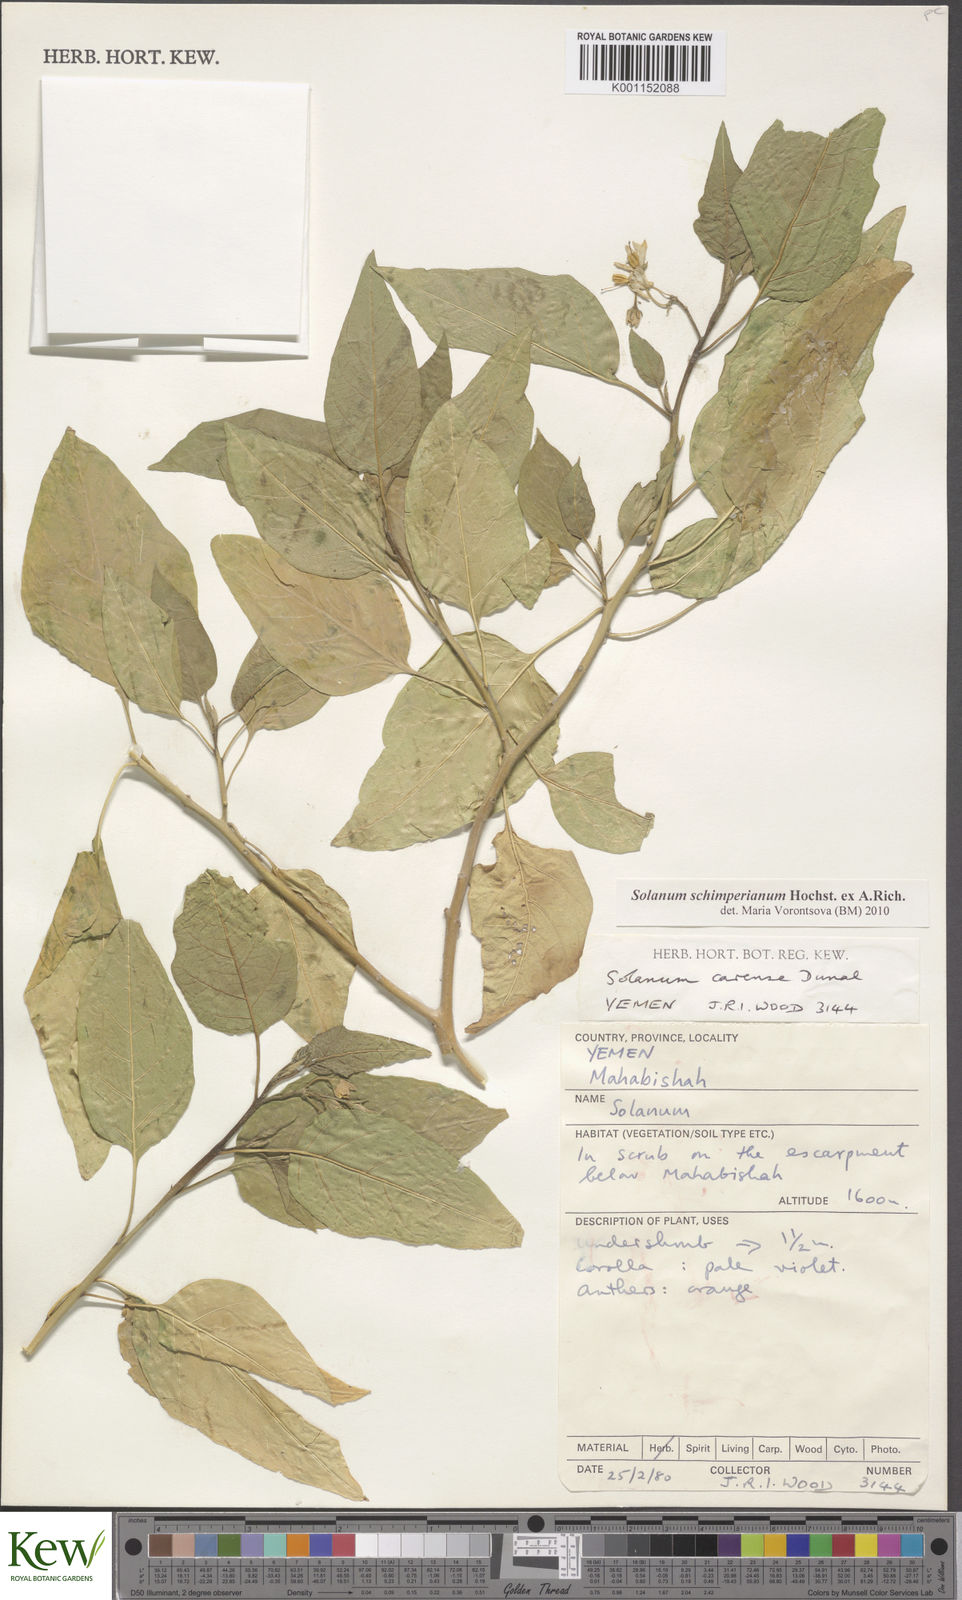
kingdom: Plantae
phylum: Tracheophyta
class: Magnoliopsida
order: Solanales
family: Solanaceae
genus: Solanum
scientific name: Solanum schimperianum
